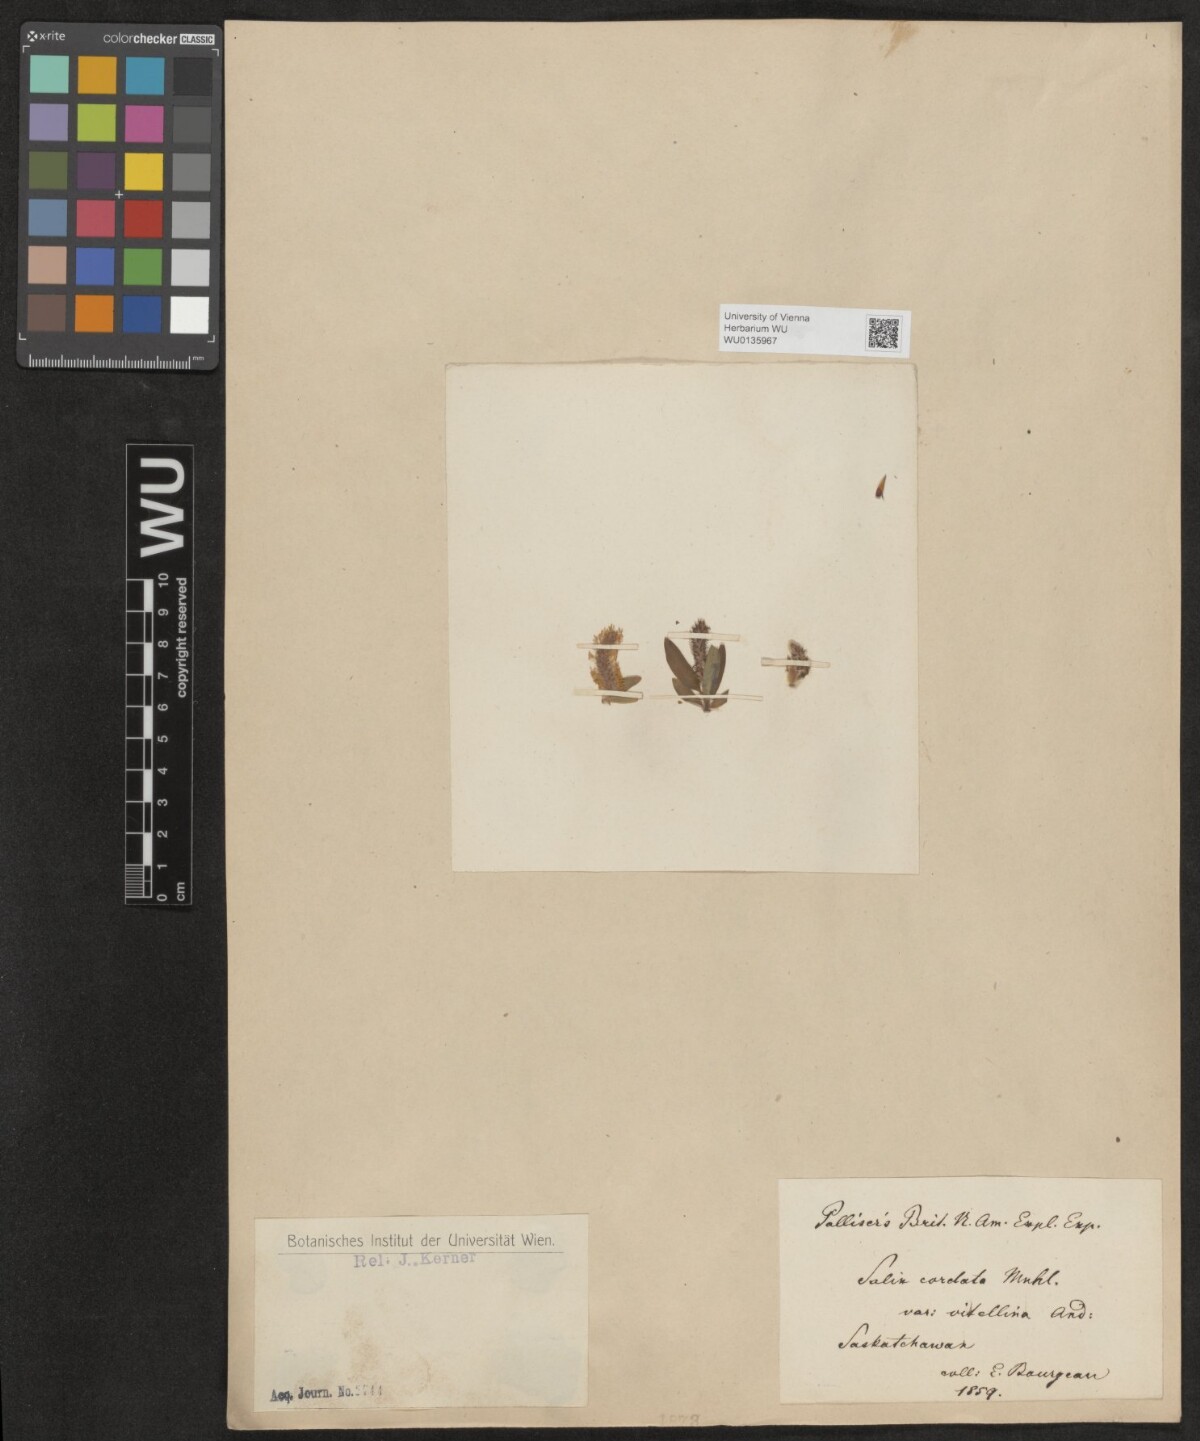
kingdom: Plantae
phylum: Tracheophyta
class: Magnoliopsida
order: Malpighiales
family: Salicaceae
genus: Salix
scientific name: Salix cordata
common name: Heart-leaf willow
